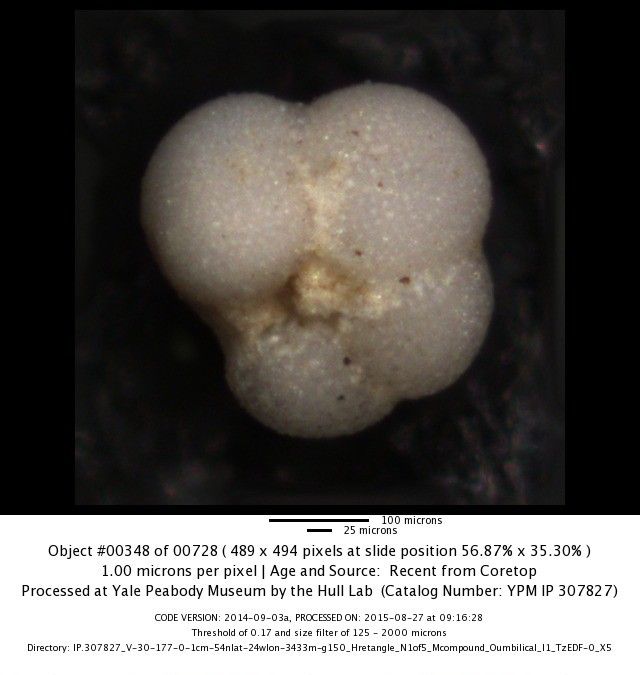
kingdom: Chromista
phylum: Foraminifera
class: Globothalamea
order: Rotaliida
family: Globorotaliidae
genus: Neogloboquadrina
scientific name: Neogloboquadrina incompta
